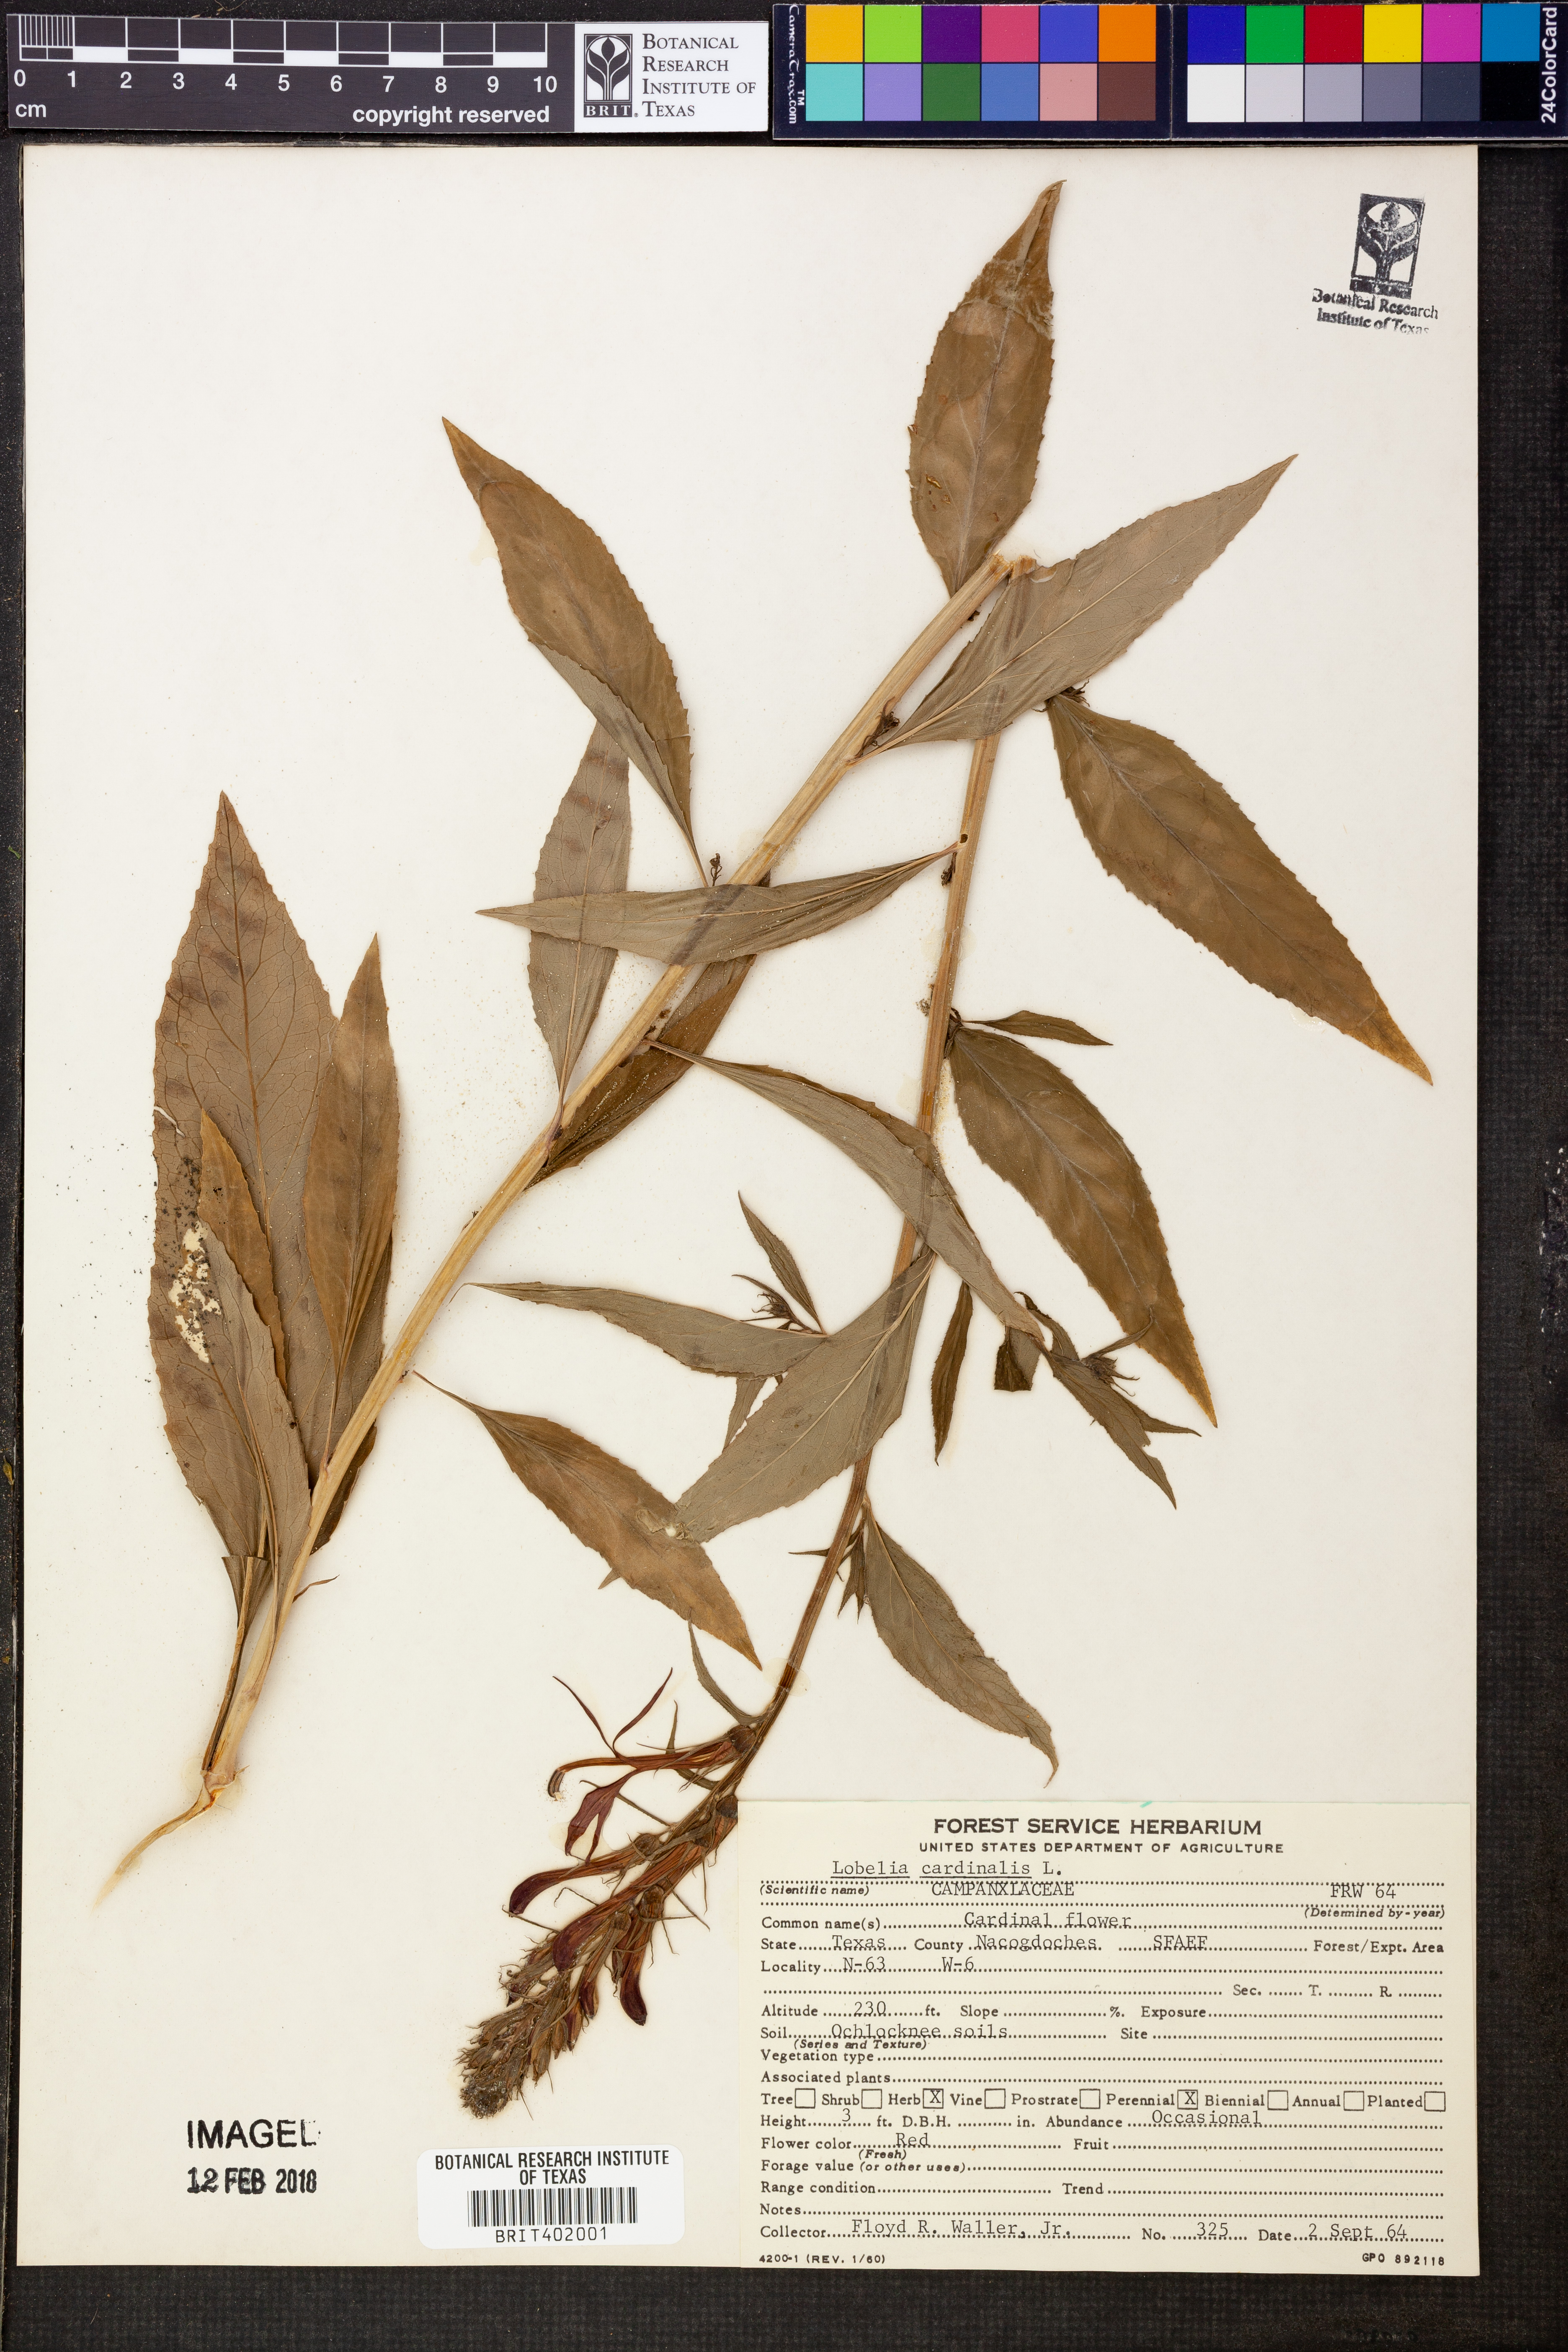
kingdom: Plantae
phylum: Tracheophyta
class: Magnoliopsida
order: Asterales
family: Campanulaceae
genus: Lobelia
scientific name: Lobelia cardinalis
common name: Cardinal flower
